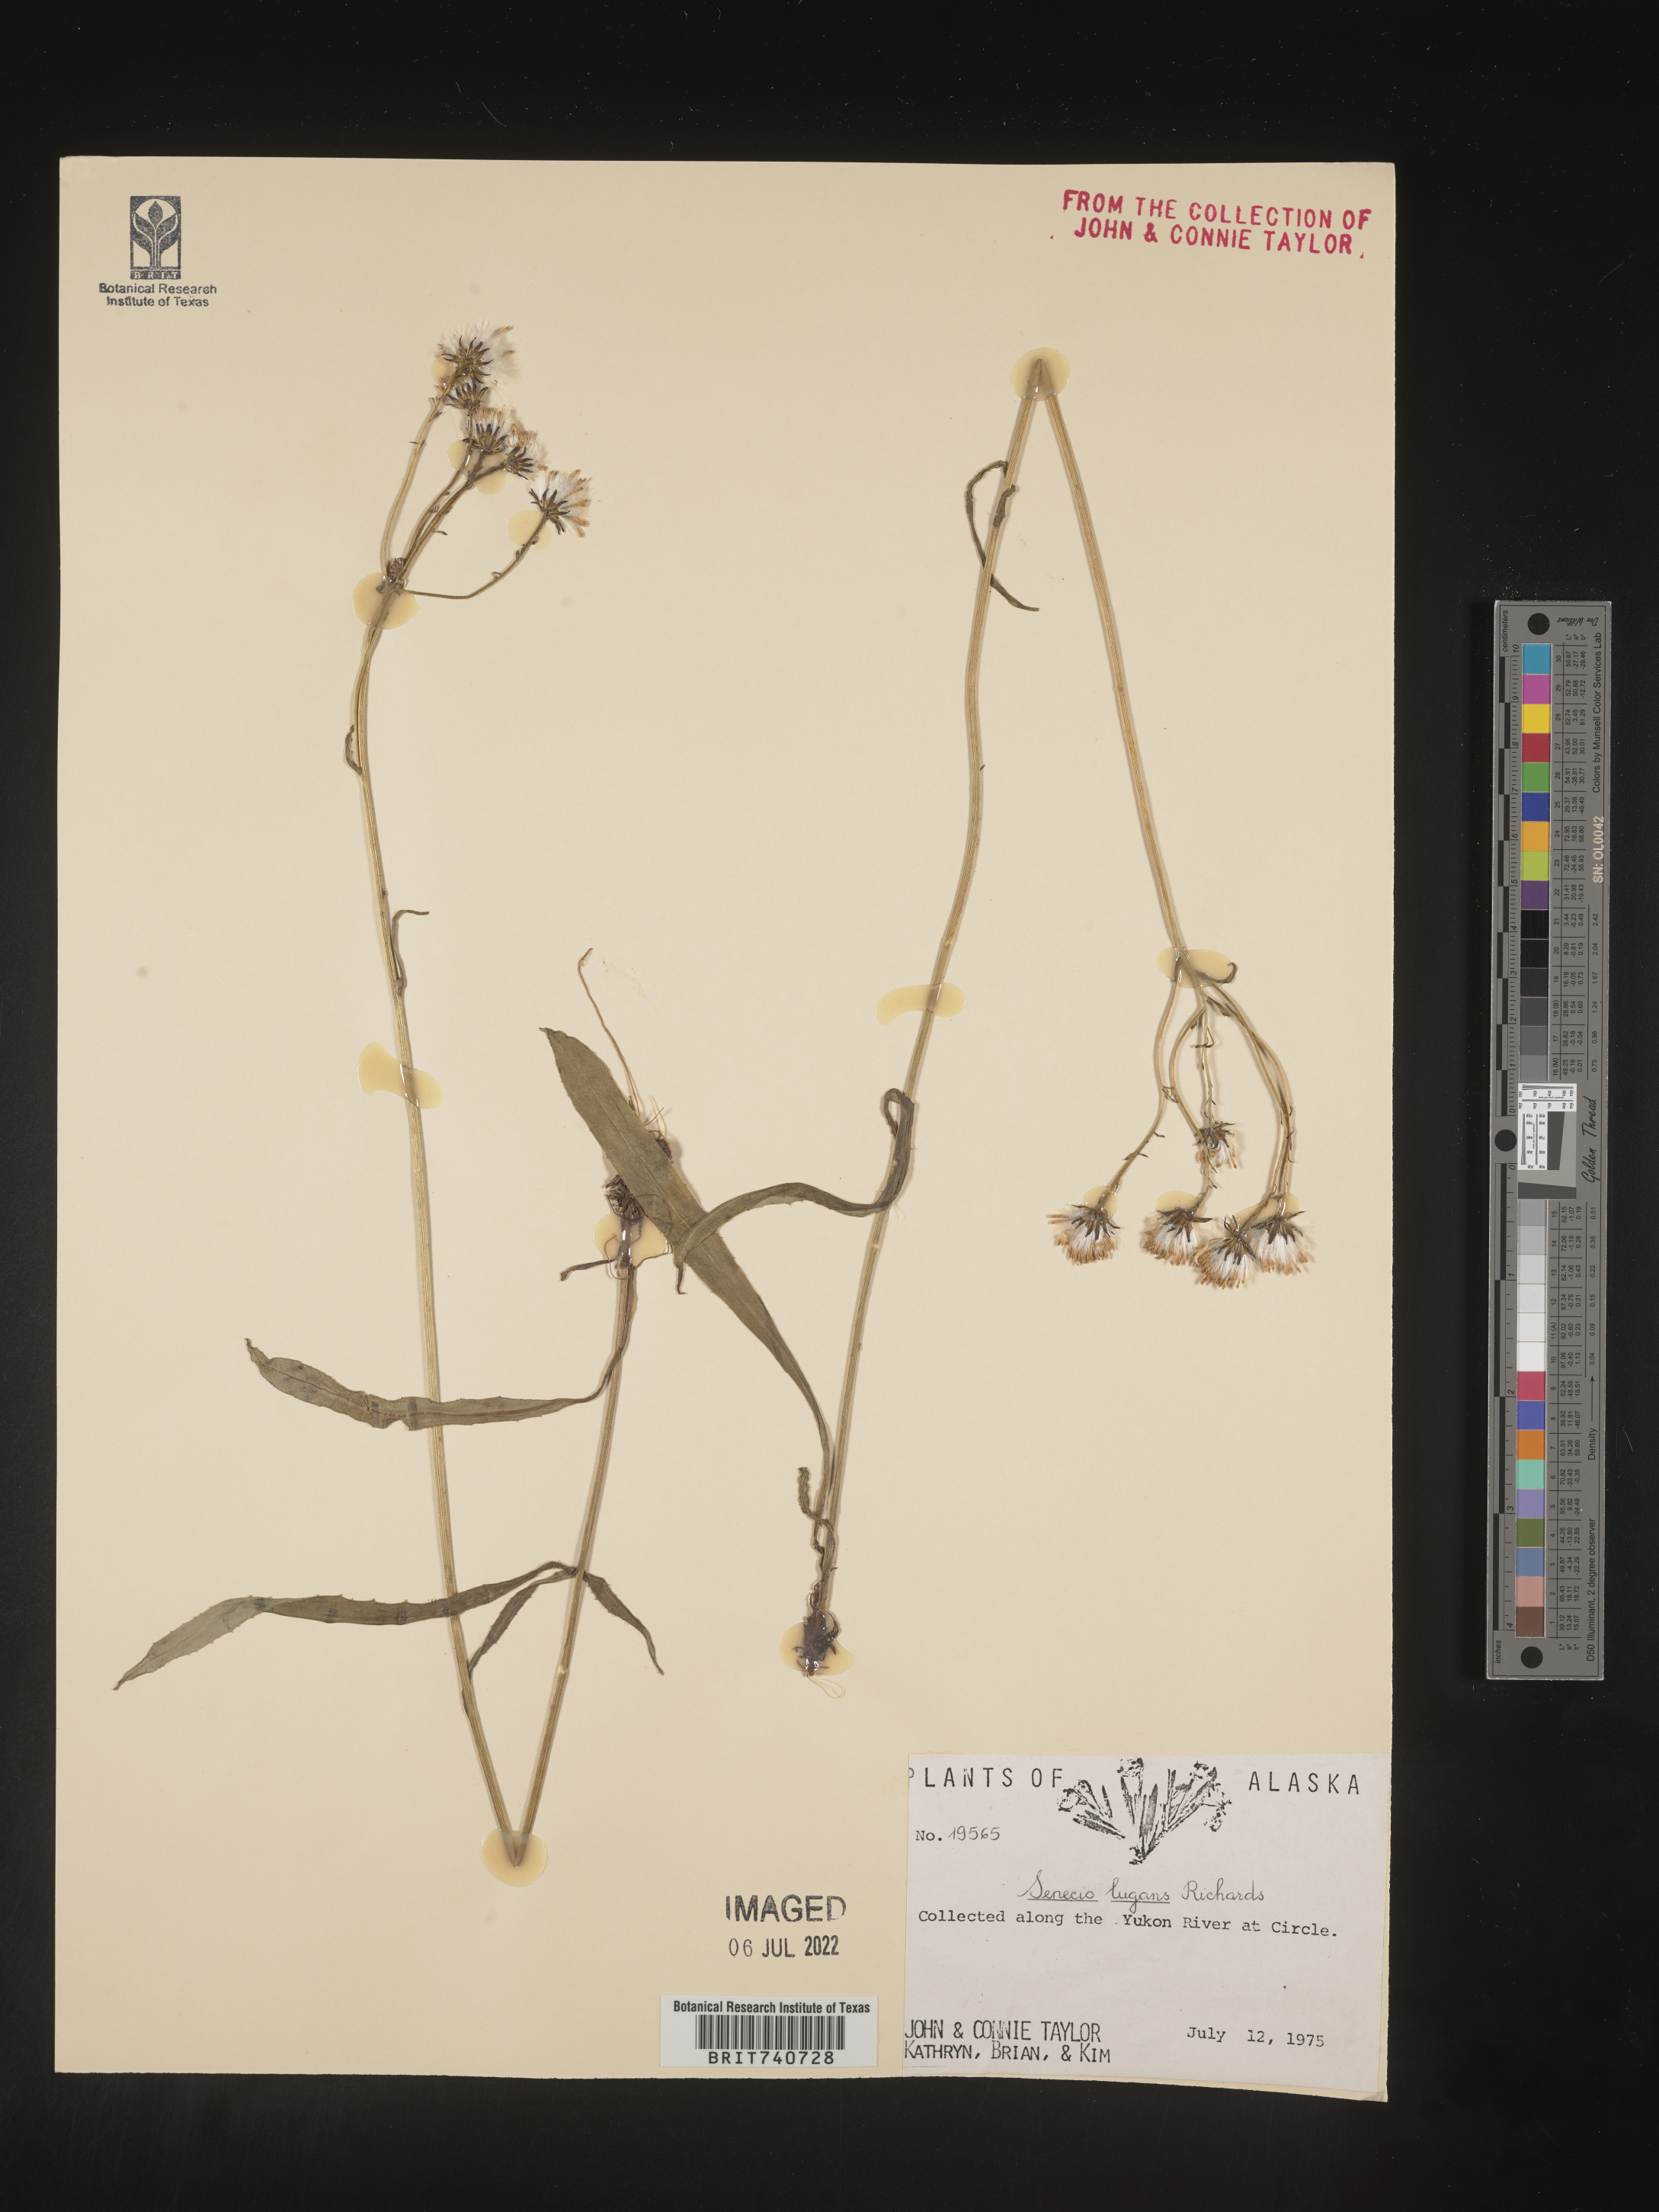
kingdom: Plantae
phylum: Tracheophyta
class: Magnoliopsida
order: Asterales
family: Asteraceae
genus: Senecio
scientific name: Senecio lugens
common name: Black-tip groundsel
